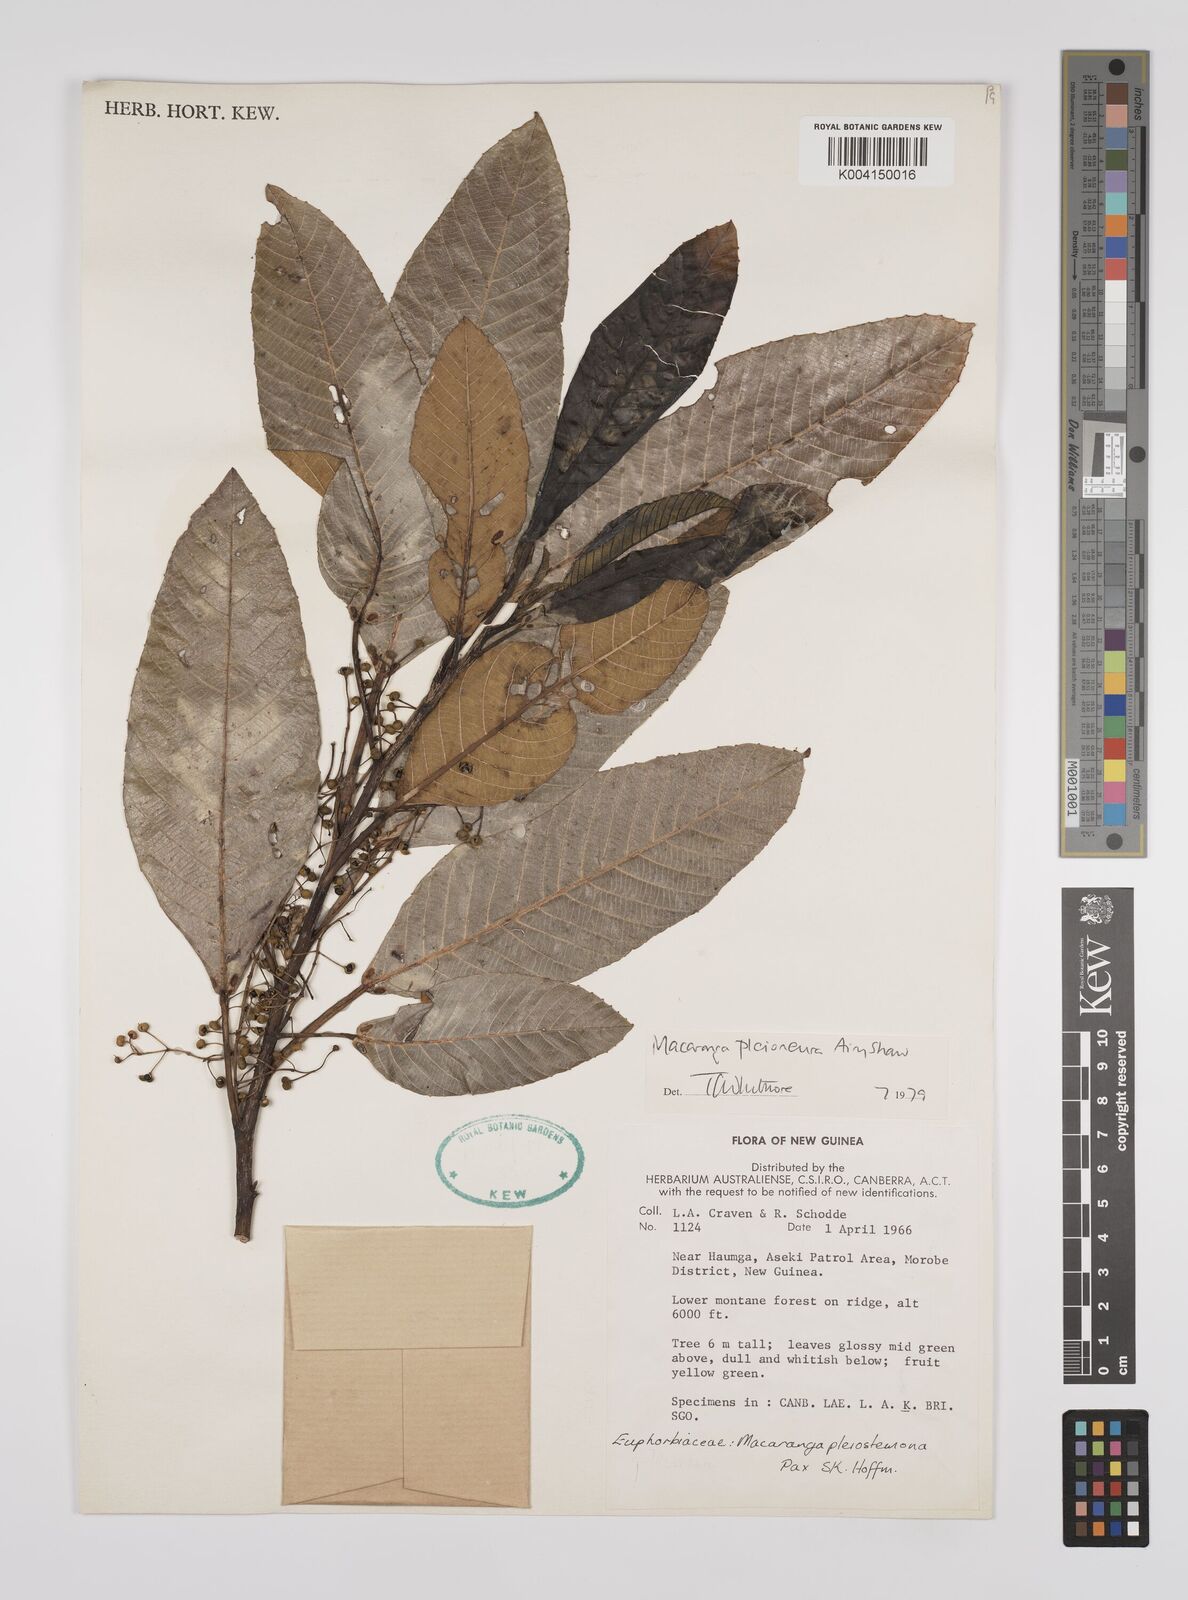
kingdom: Plantae
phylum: Tracheophyta
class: Magnoliopsida
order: Malpighiales
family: Euphorbiaceae
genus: Macaranga
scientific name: Macaranga pleioneura
